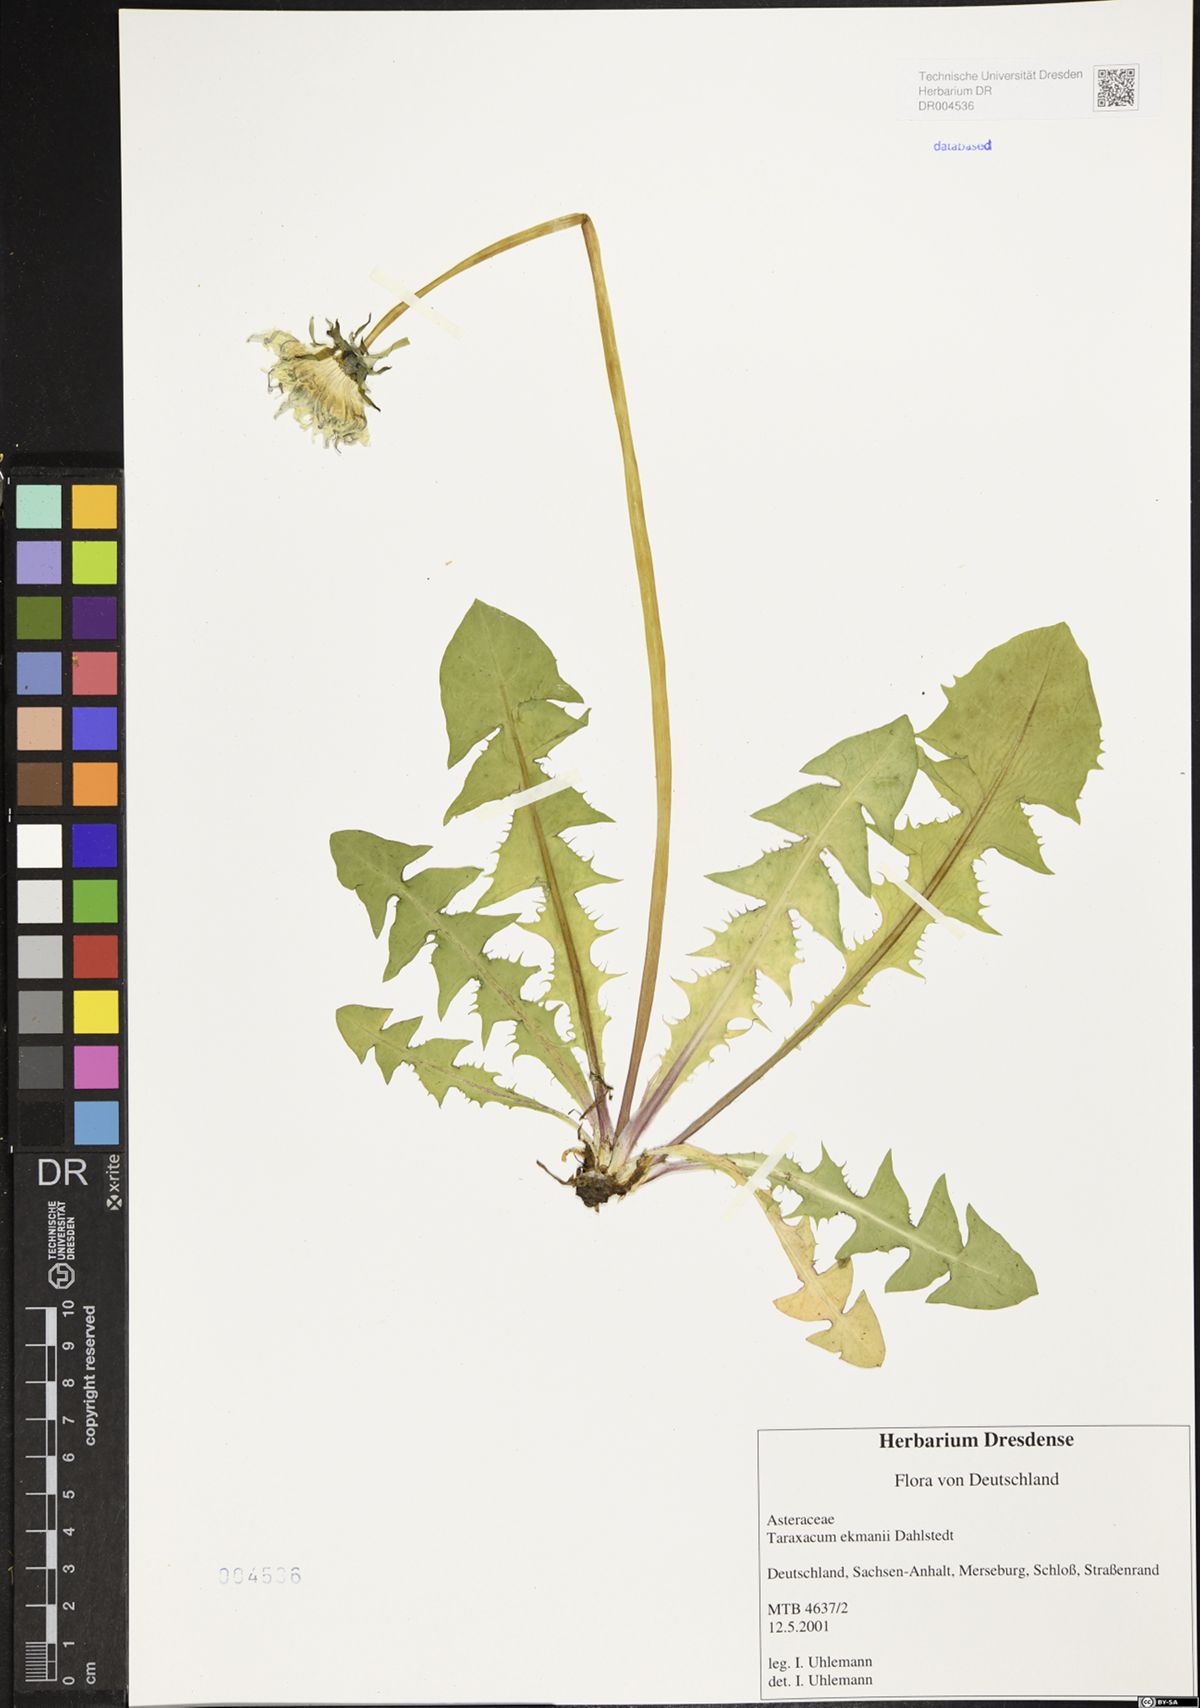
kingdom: Plantae
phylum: Tracheophyta
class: Magnoliopsida
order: Asterales
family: Asteraceae
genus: Taraxacum
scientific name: Taraxacum ekmanii
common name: Ekman's dandelion
